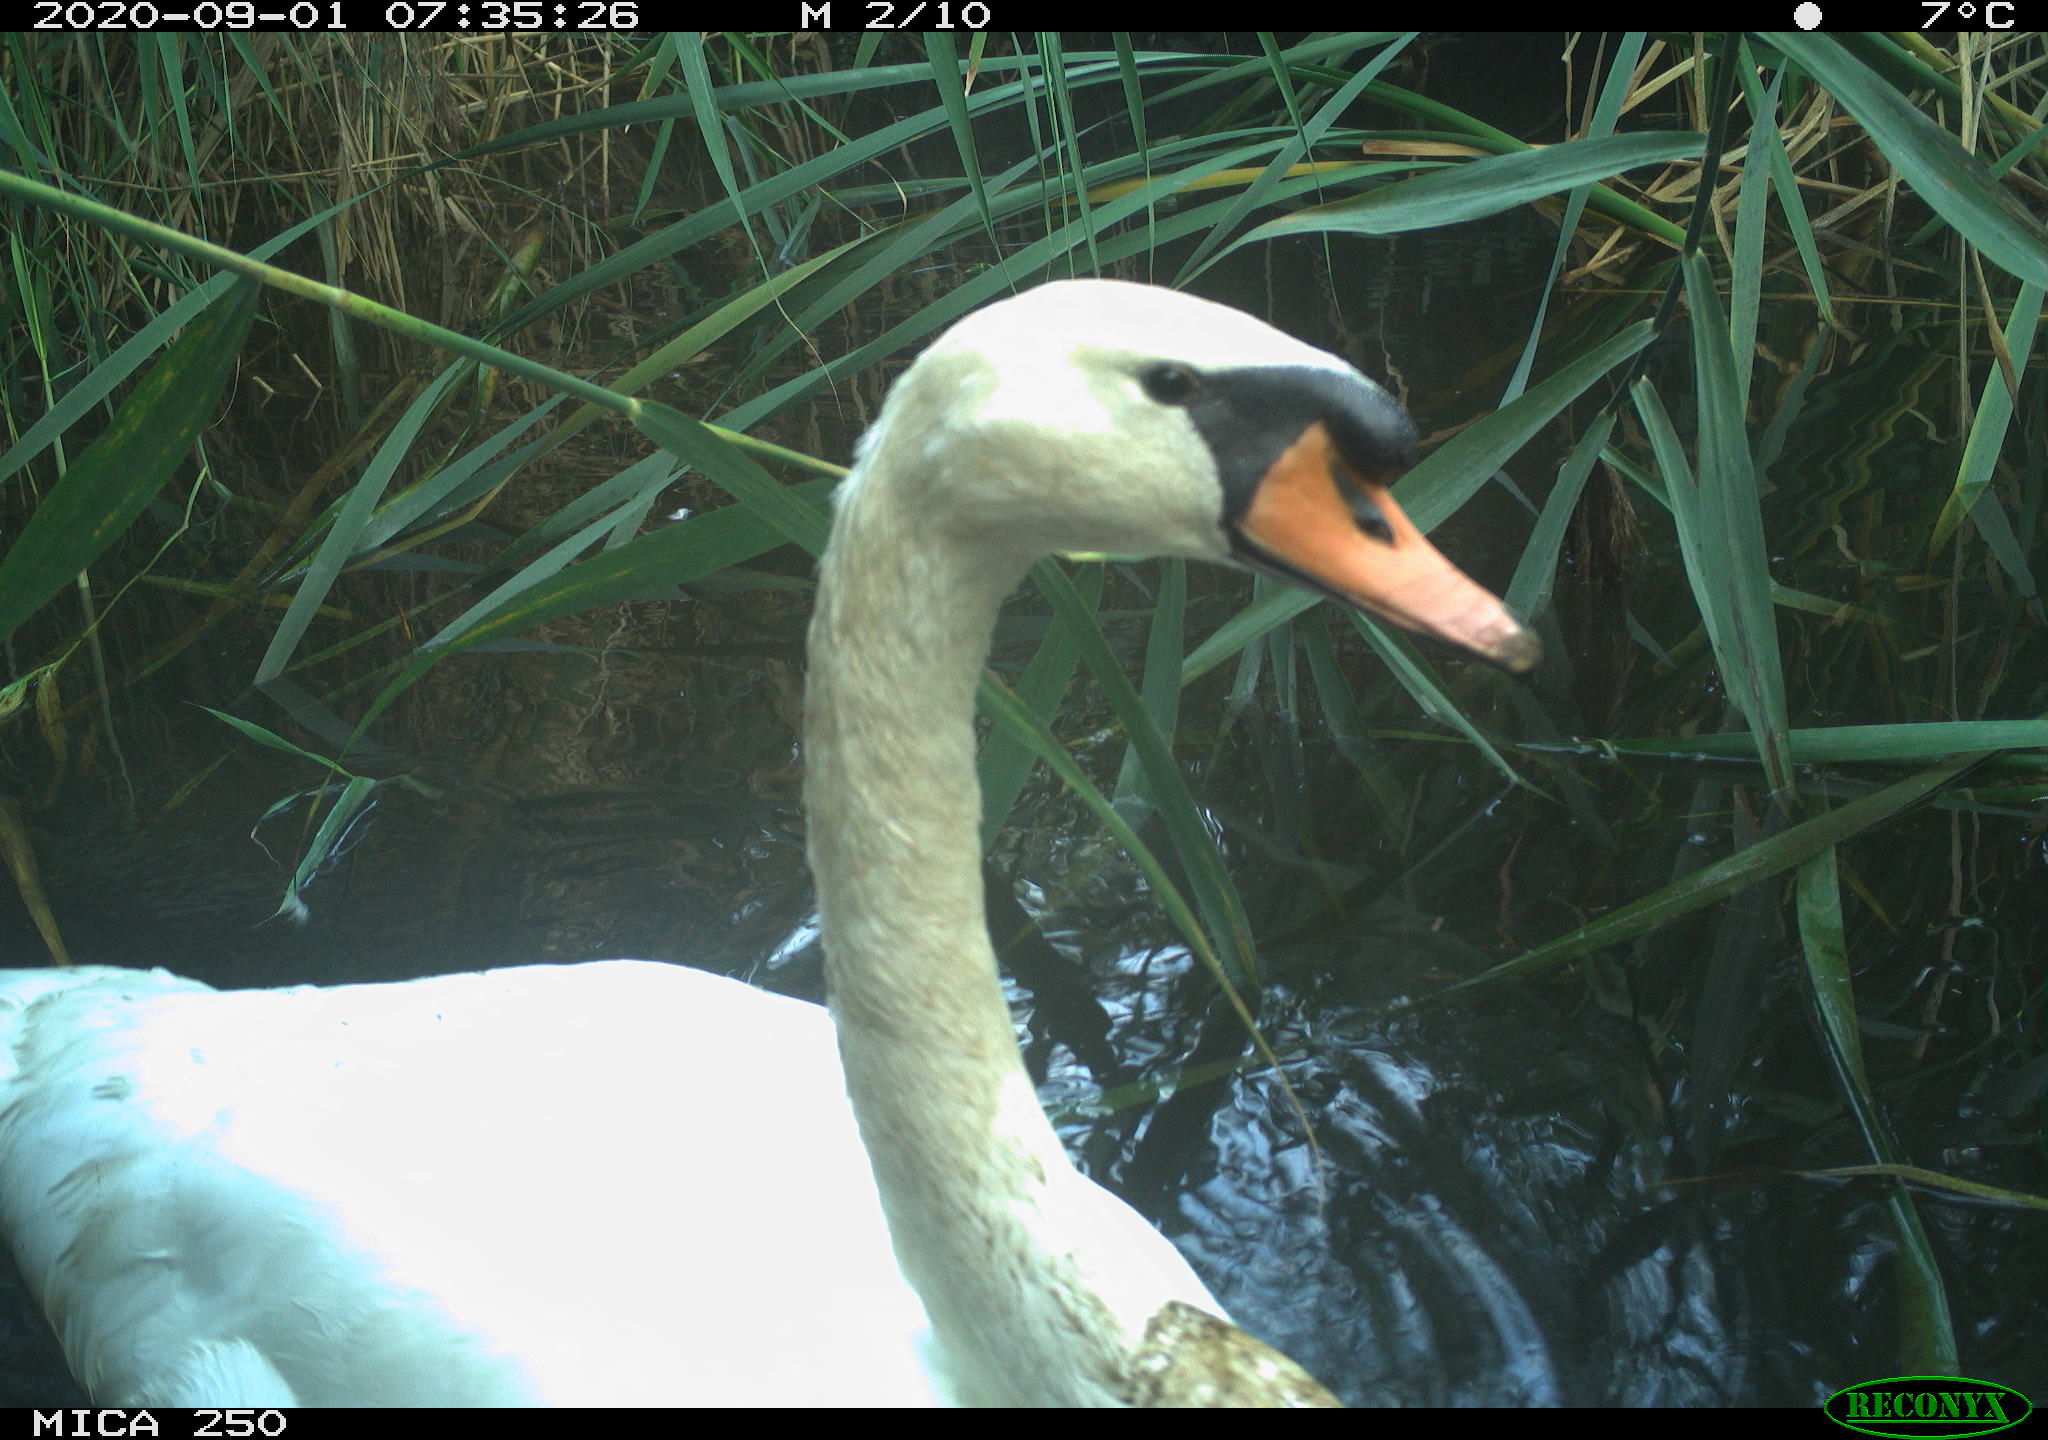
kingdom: Animalia
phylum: Chordata
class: Aves
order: Anseriformes
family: Anatidae
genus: Cygnus
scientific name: Cygnus olor
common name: Mute swan
